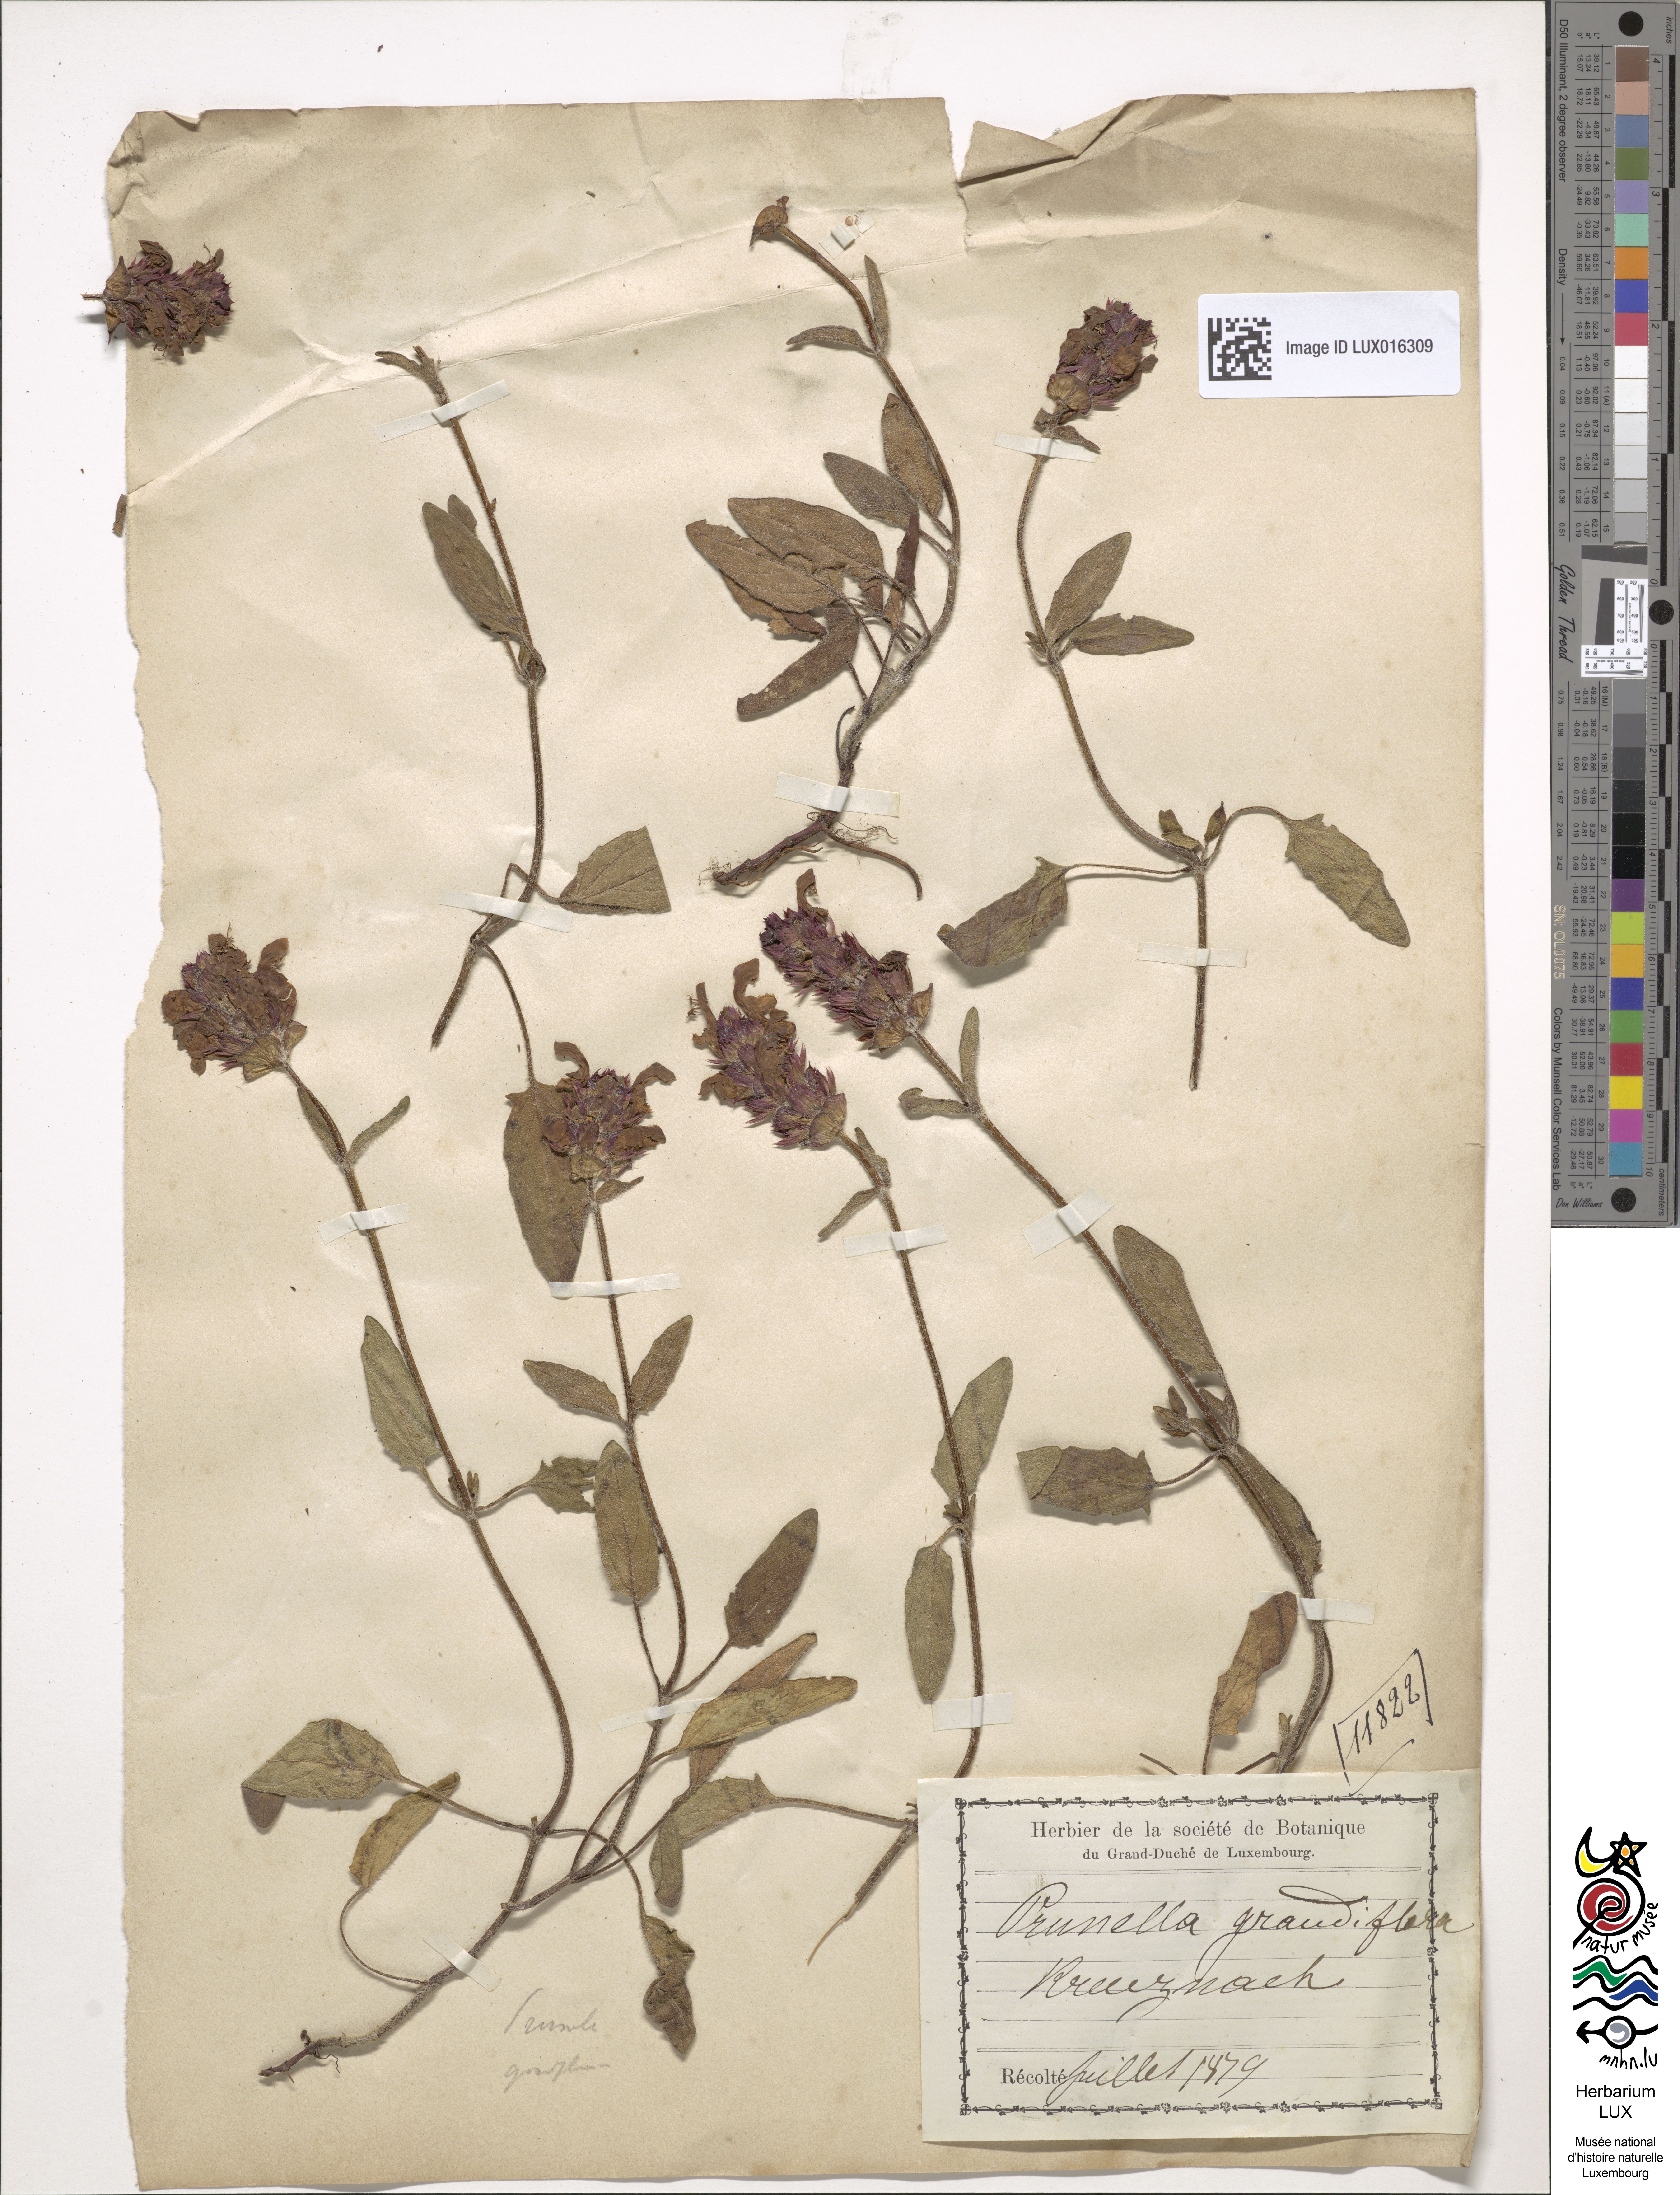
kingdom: Plantae
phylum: Tracheophyta
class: Magnoliopsida
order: Lamiales
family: Lamiaceae
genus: Prunella
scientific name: Prunella grandiflora
